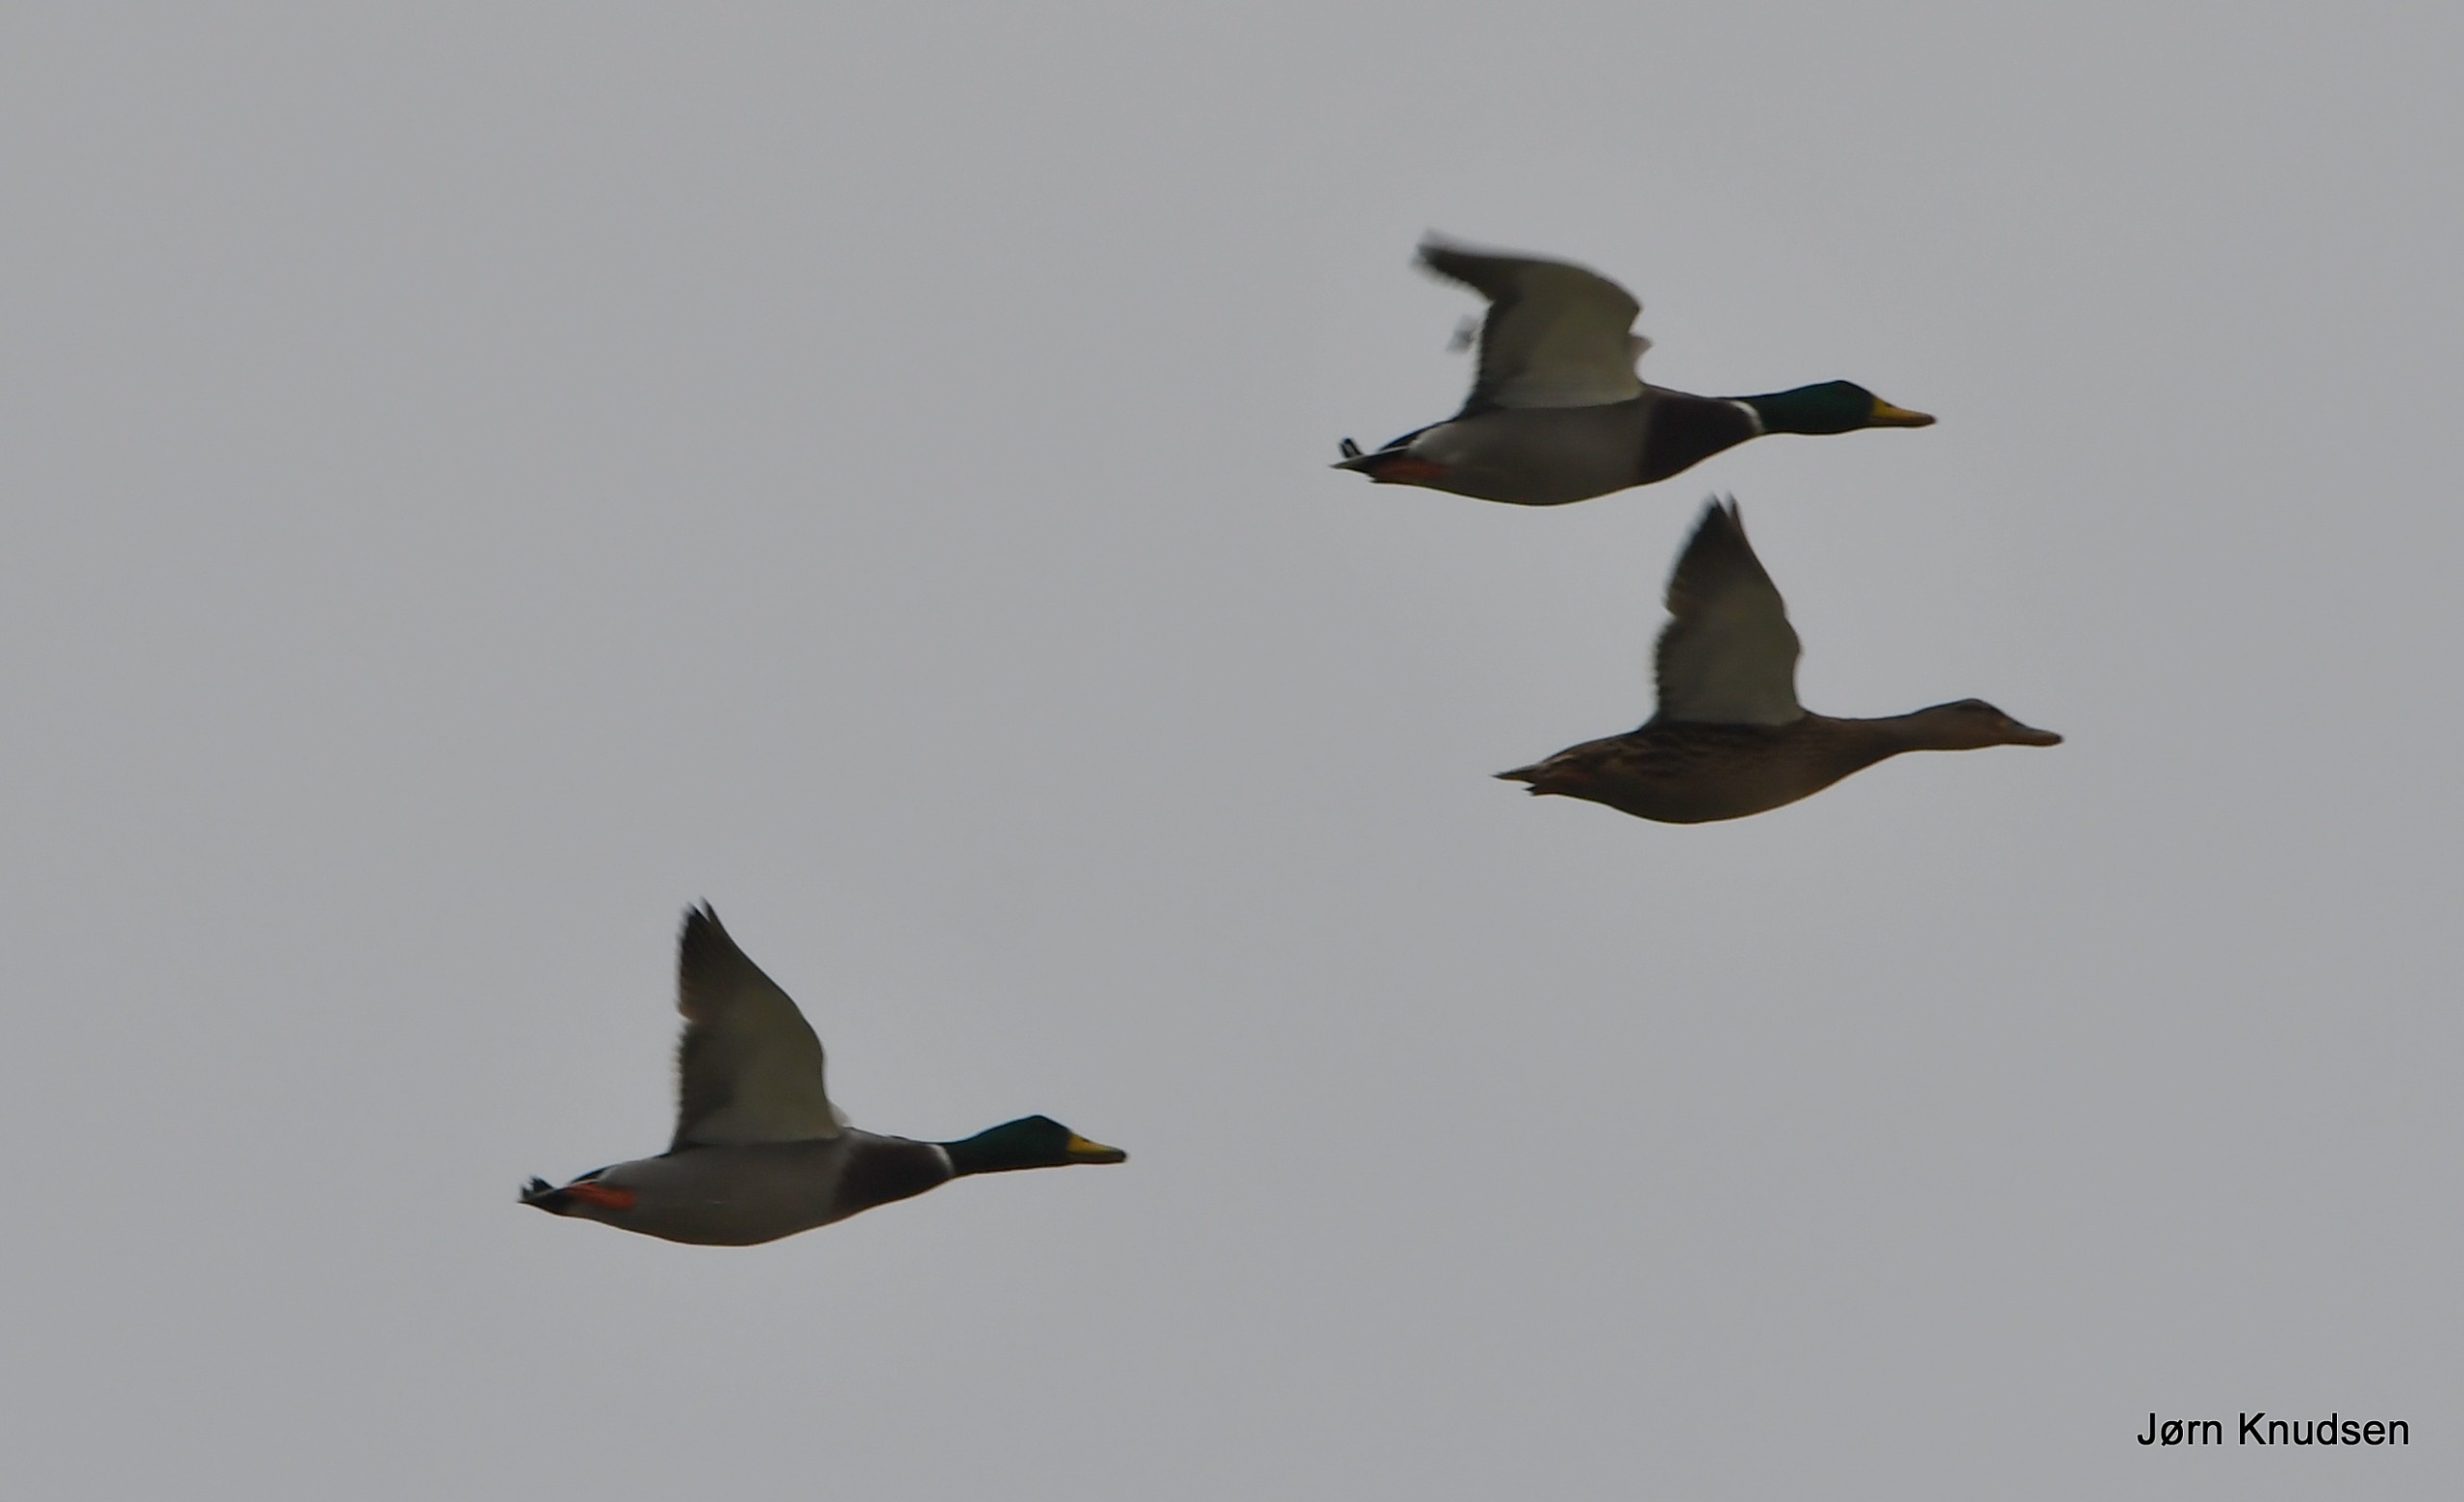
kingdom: Animalia
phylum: Chordata
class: Aves
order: Anseriformes
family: Anatidae
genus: Anas
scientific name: Anas platyrhynchos
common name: Gråand
